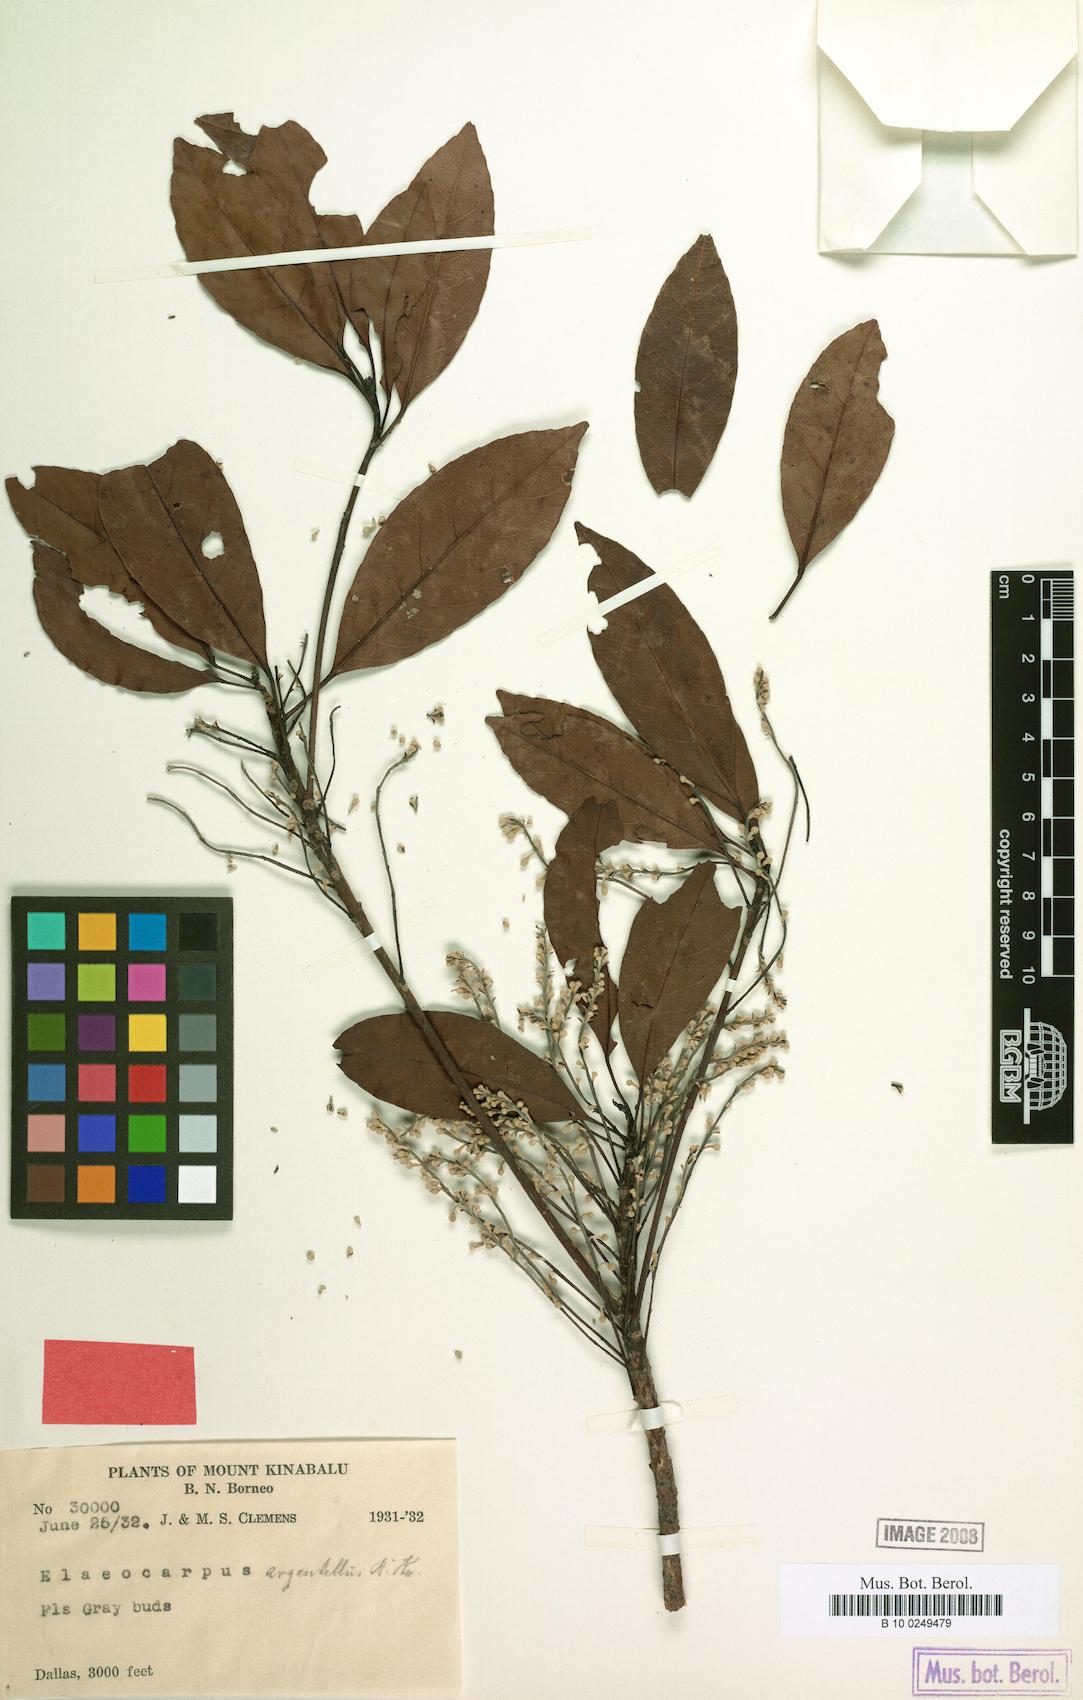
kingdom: Plantae
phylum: Tracheophyta
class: Magnoliopsida
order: Oxalidales
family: Elaeocarpaceae
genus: Elaeocarpus
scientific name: Elaeocarpus pedunculatus
